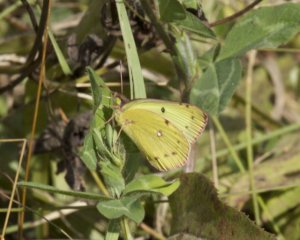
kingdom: Animalia
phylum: Arthropoda
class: Insecta
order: Lepidoptera
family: Pieridae
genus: Colias
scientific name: Colias philodice
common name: Clouded Sulphur
